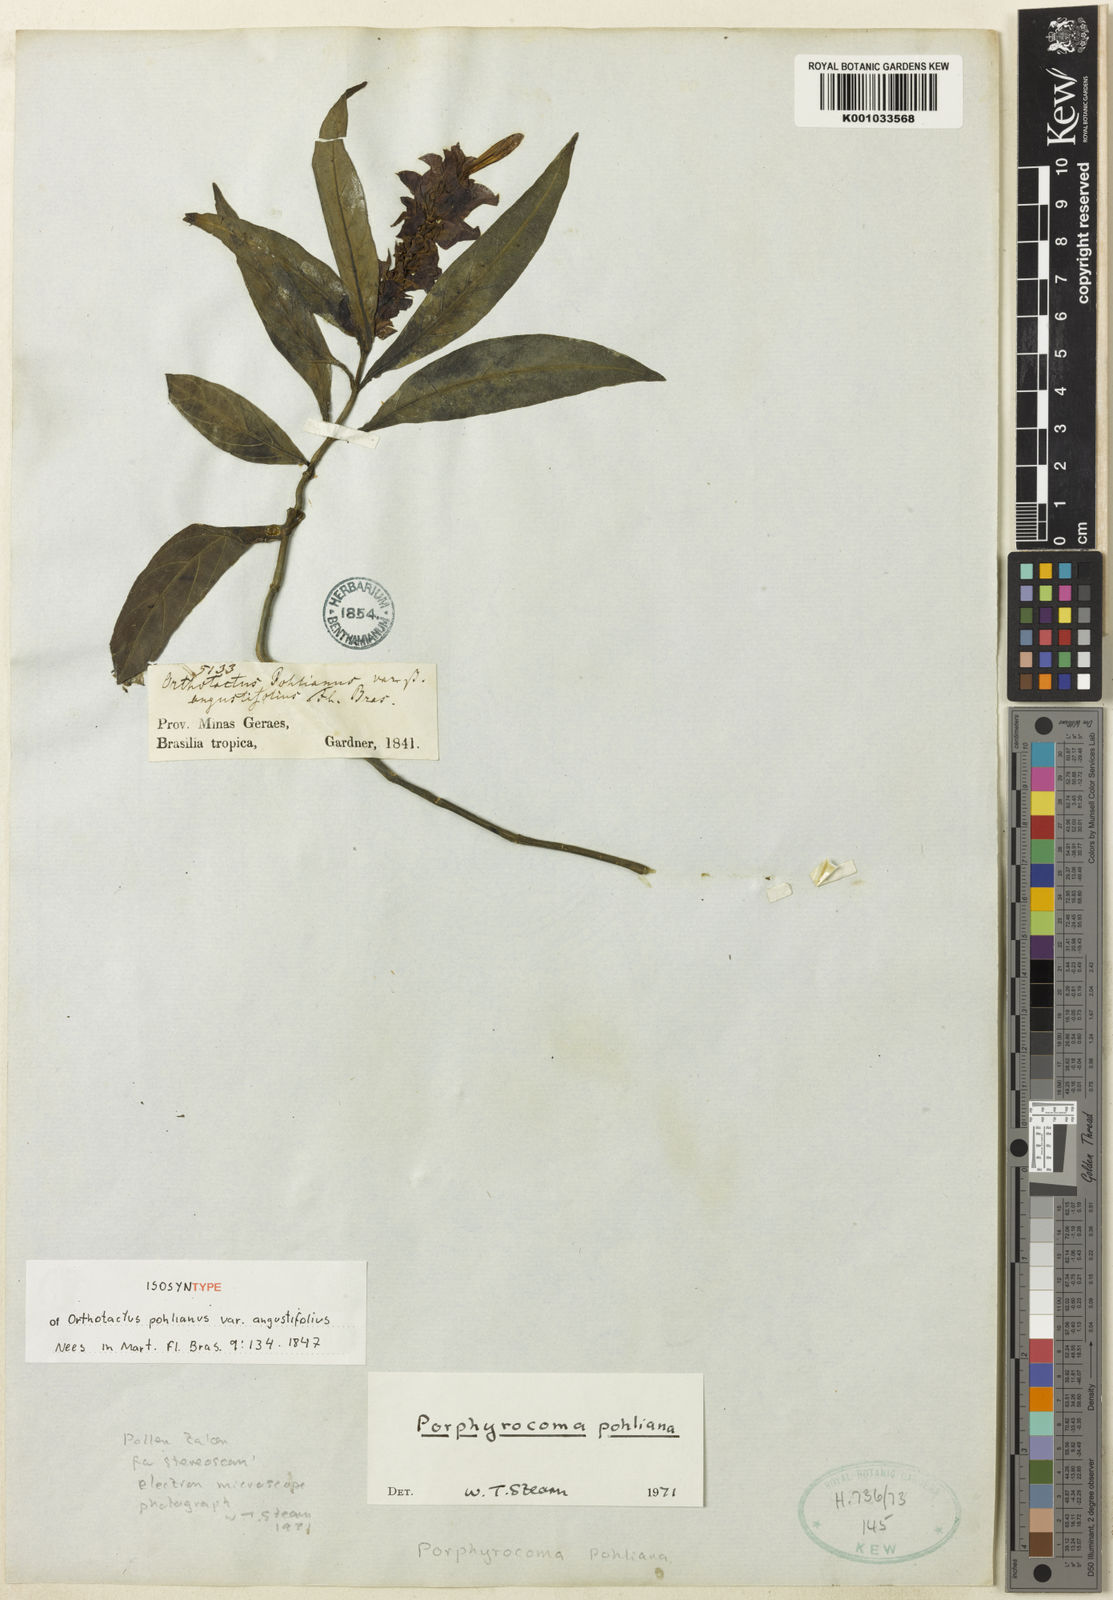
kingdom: Plantae
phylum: Tracheophyta
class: Magnoliopsida
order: Lamiales
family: Acanthaceae
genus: Justicia
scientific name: Justicia scheidweileri
